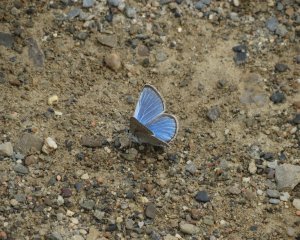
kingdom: Animalia
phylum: Arthropoda
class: Insecta
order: Lepidoptera
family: Lycaenidae
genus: Glaucopsyche
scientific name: Glaucopsyche lygdamus
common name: Silvery Blue
